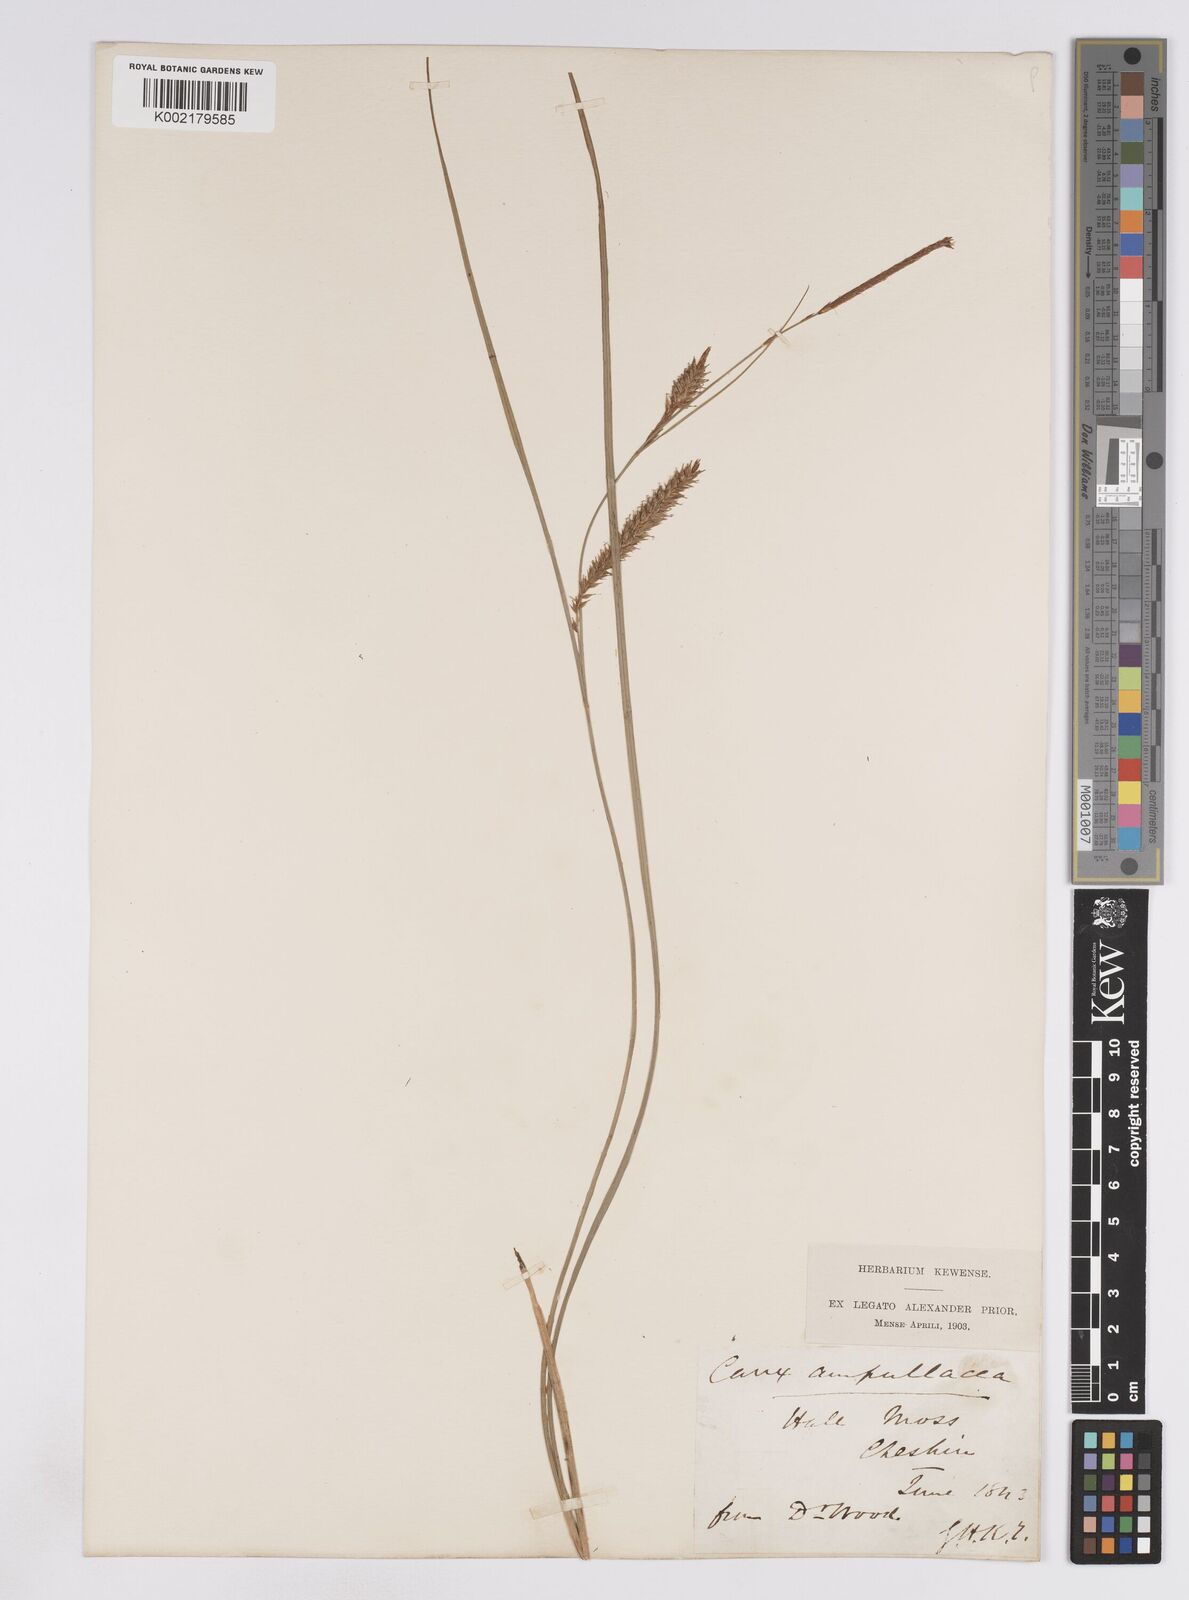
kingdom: Plantae
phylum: Tracheophyta
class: Liliopsida
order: Poales
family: Cyperaceae
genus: Carex
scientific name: Carex rostrata
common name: Bottle sedge
